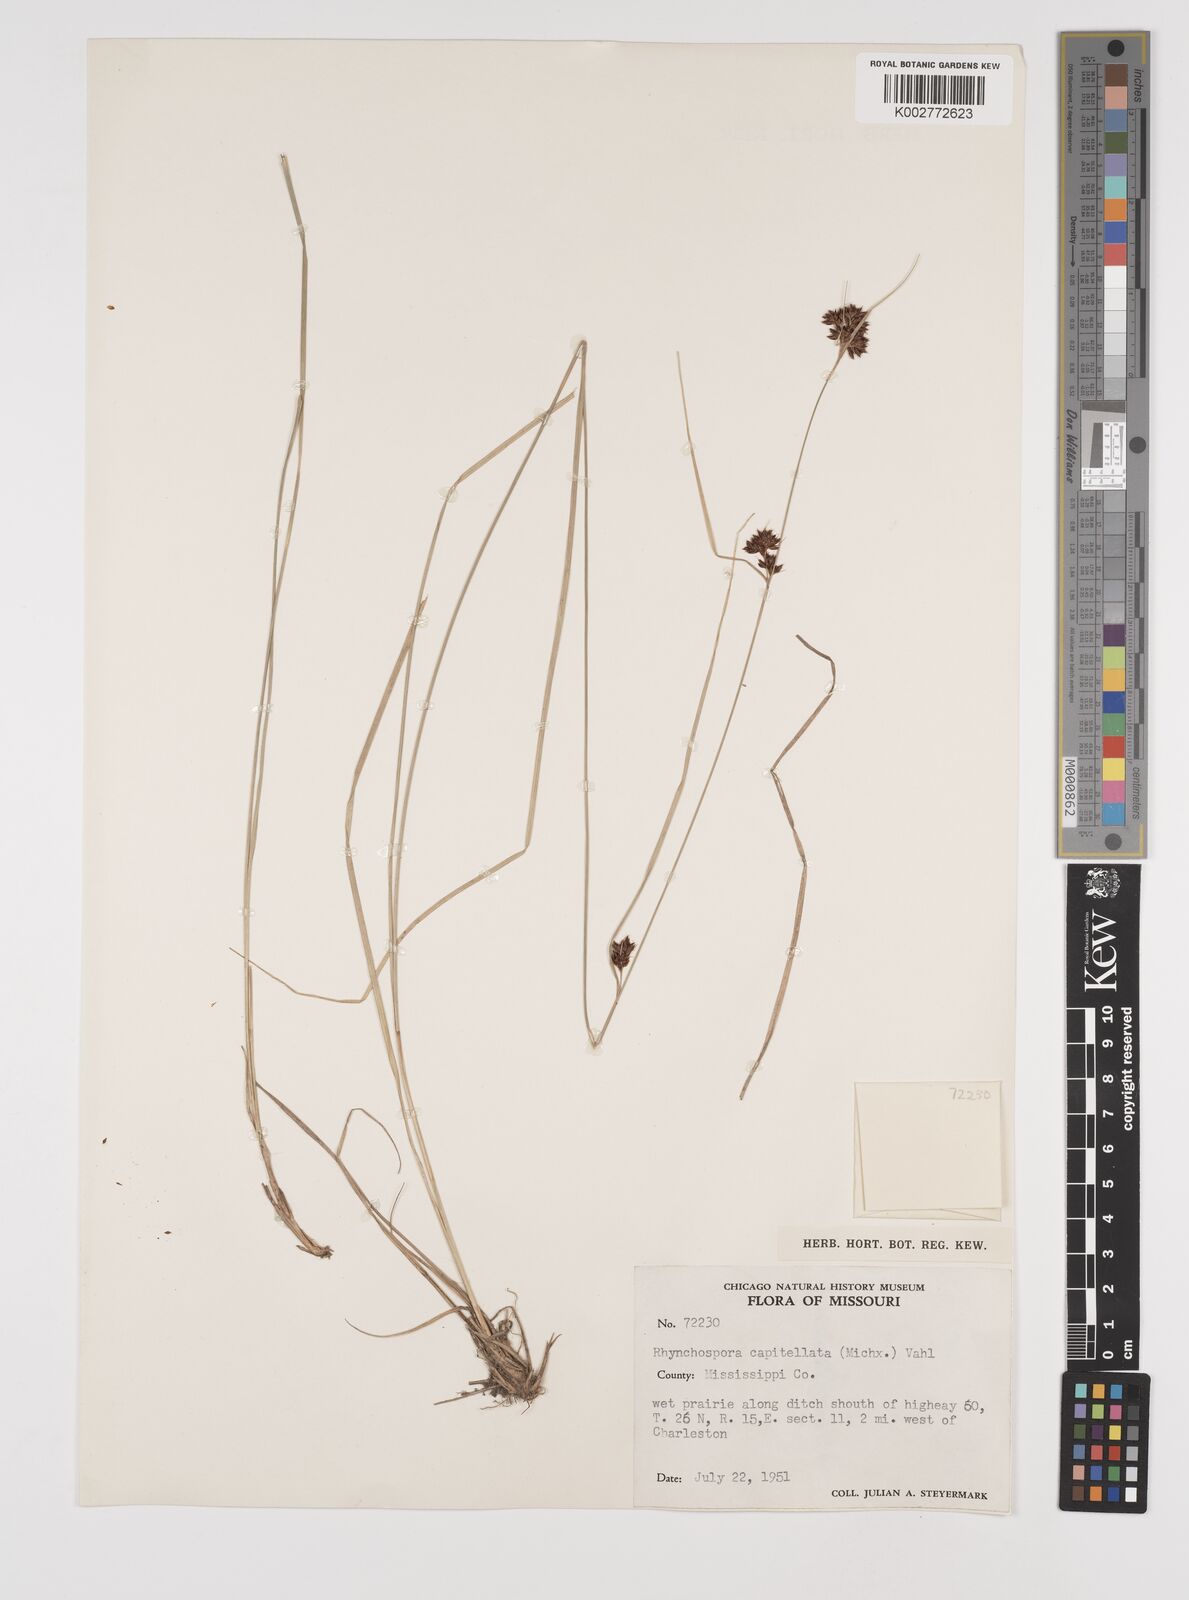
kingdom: Plantae
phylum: Tracheophyta
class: Liliopsida
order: Poales
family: Cyperaceae
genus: Rhynchospora
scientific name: Rhynchospora capitellata
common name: Brownish beaksedge
